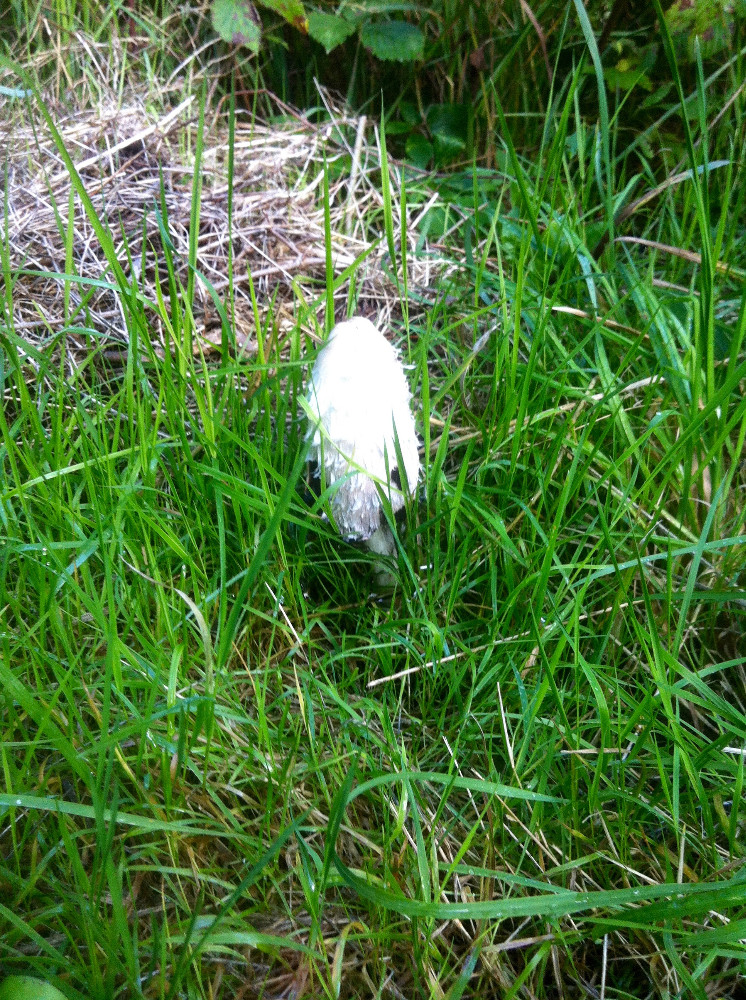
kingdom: Fungi
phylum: Basidiomycota
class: Agaricomycetes
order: Agaricales
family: Agaricaceae
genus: Coprinus
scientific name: Coprinus comatus
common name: stor parykhat
